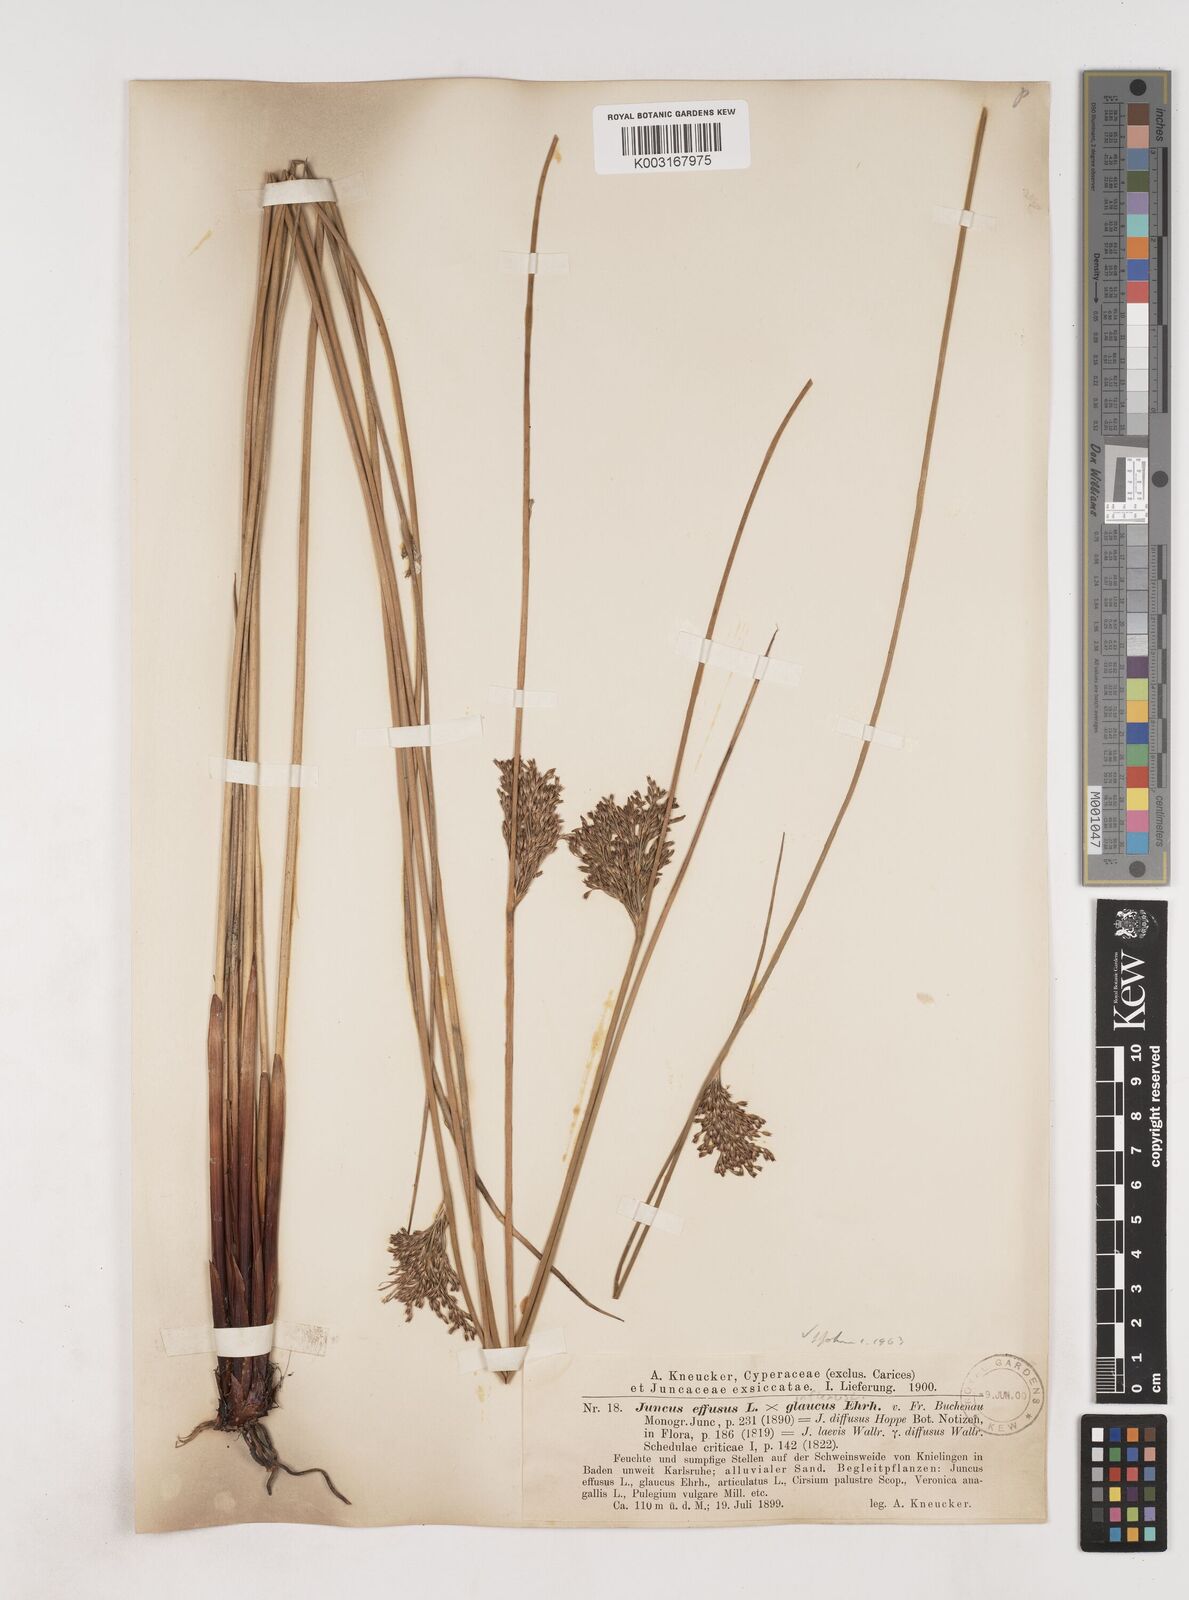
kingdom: Plantae
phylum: Tracheophyta
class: Liliopsida
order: Poales
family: Juncaceae
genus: Juncus
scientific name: Juncus effusus
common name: Soft rush
